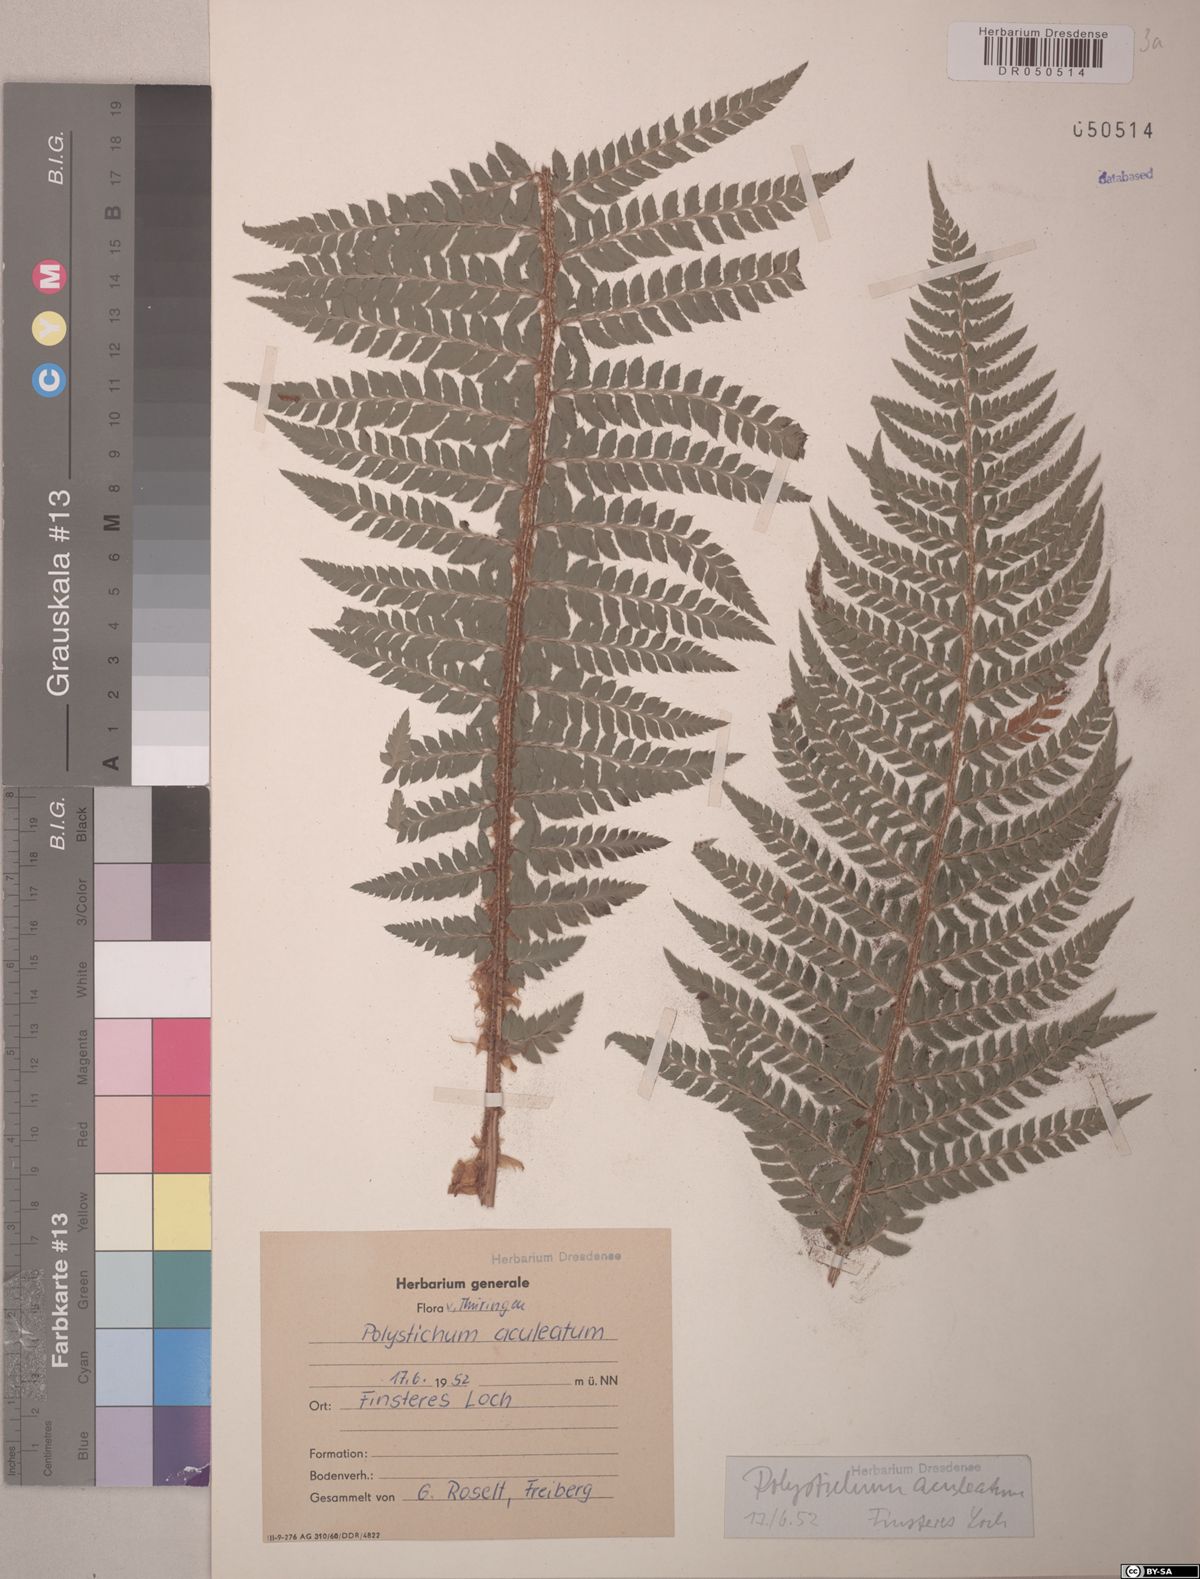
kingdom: Plantae
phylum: Tracheophyta
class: Polypodiopsida
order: Polypodiales
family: Dryopteridaceae
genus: Polystichum
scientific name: Polystichum aculeatum
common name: Hard shield-fern
